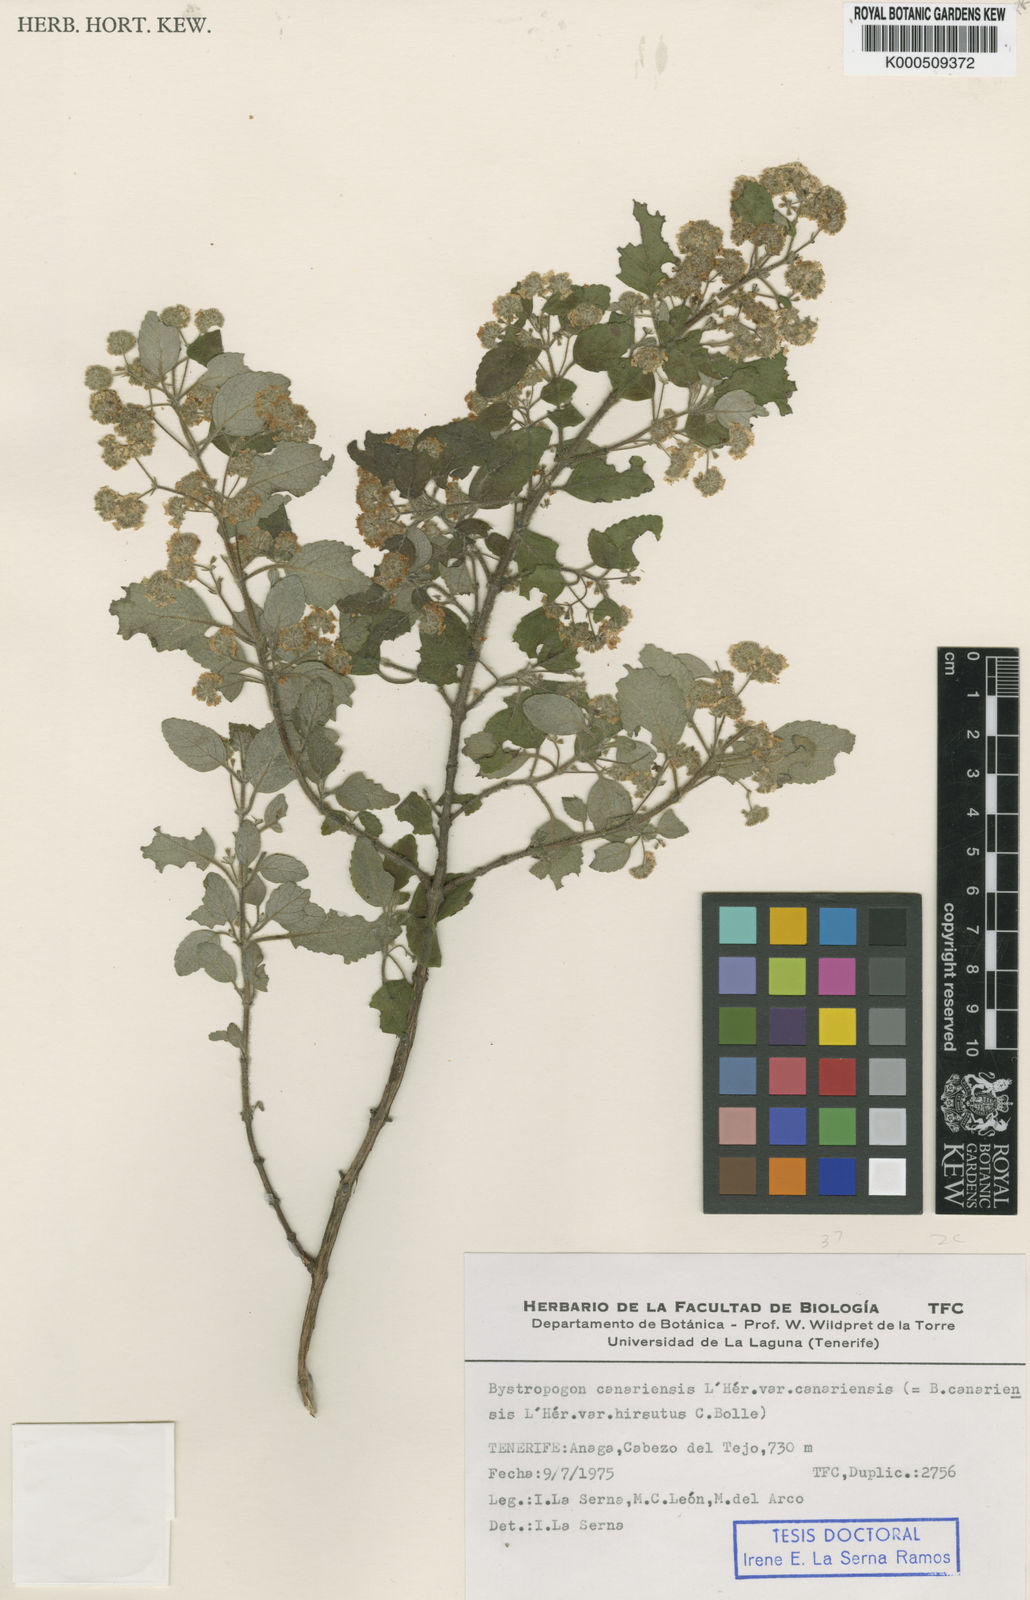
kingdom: Plantae
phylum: Tracheophyta
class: Magnoliopsida
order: Lamiales
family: Lamiaceae
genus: Bystropogon
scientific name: Bystropogon
